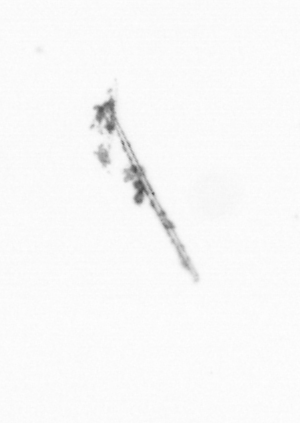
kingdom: Chromista
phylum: Ochrophyta
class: Bacillariophyceae
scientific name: Bacillariophyceae
